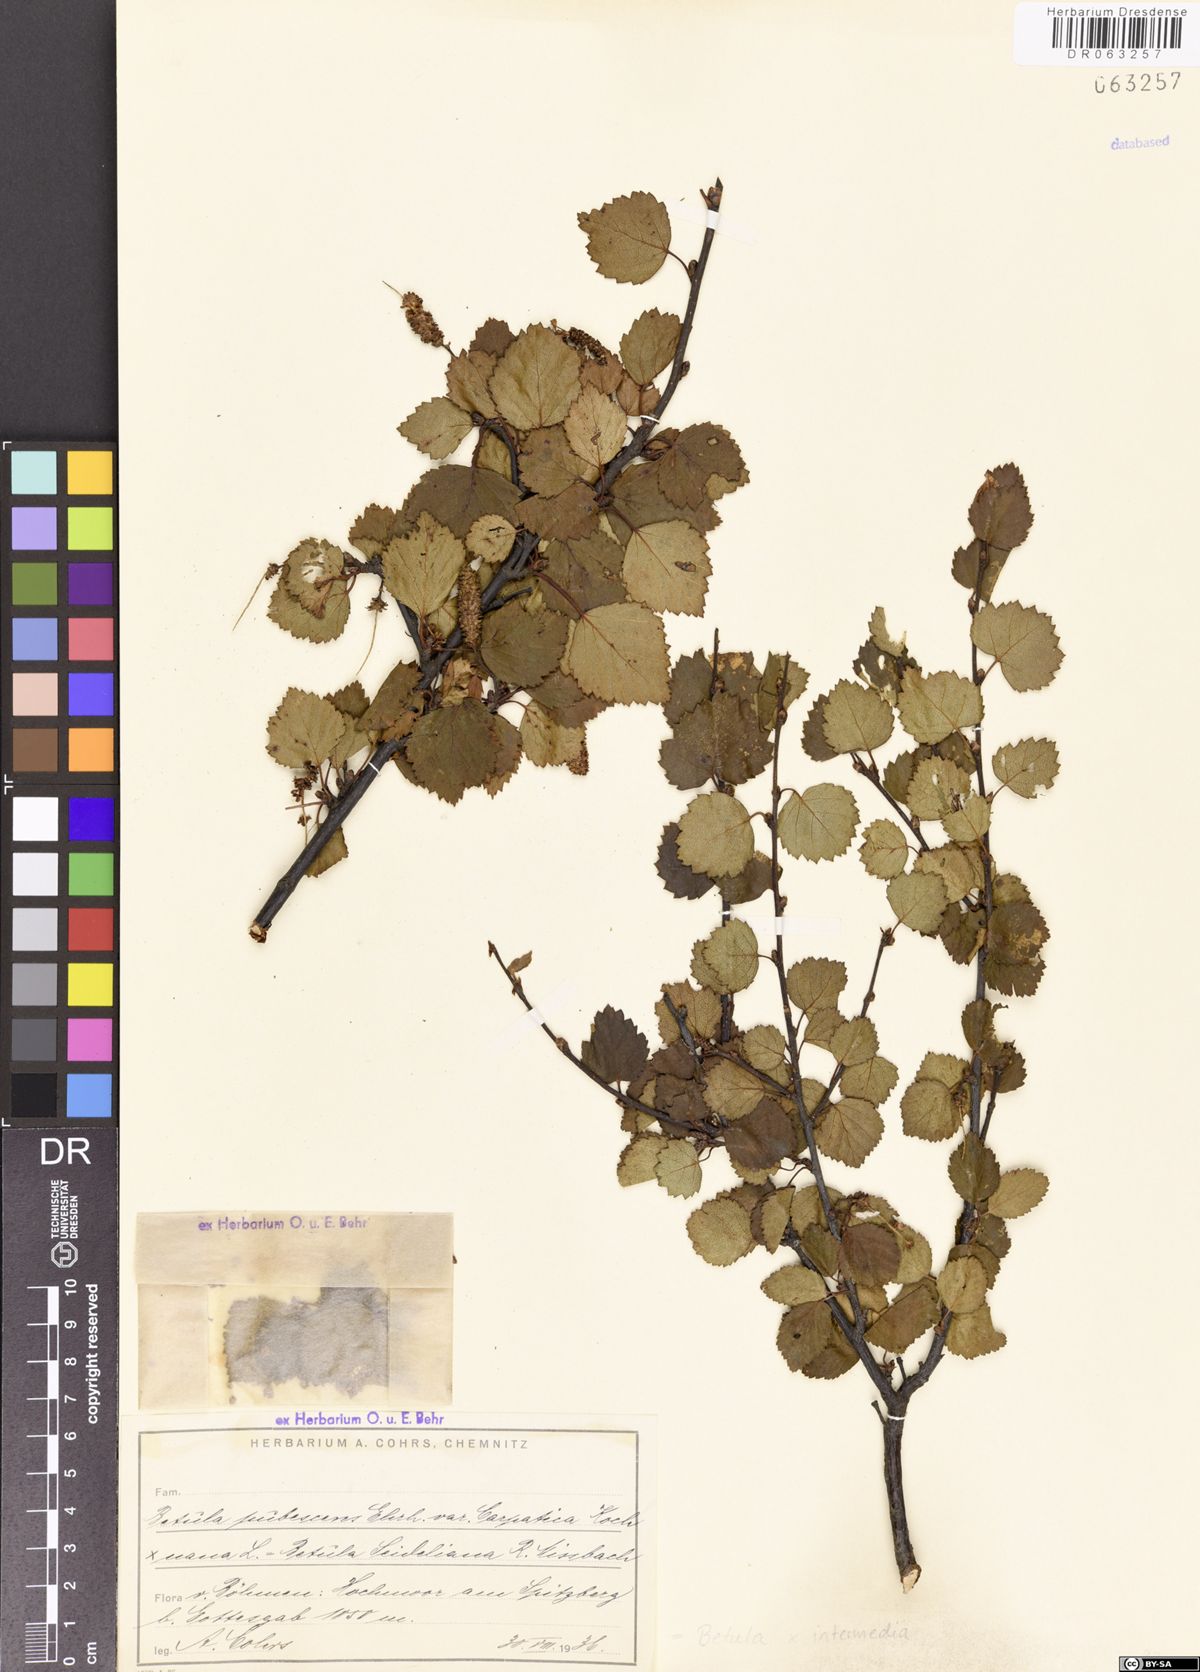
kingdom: Plantae
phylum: Tracheophyta
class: Magnoliopsida
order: Fagales
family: Betulaceae
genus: Betula
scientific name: Betula intermedia
